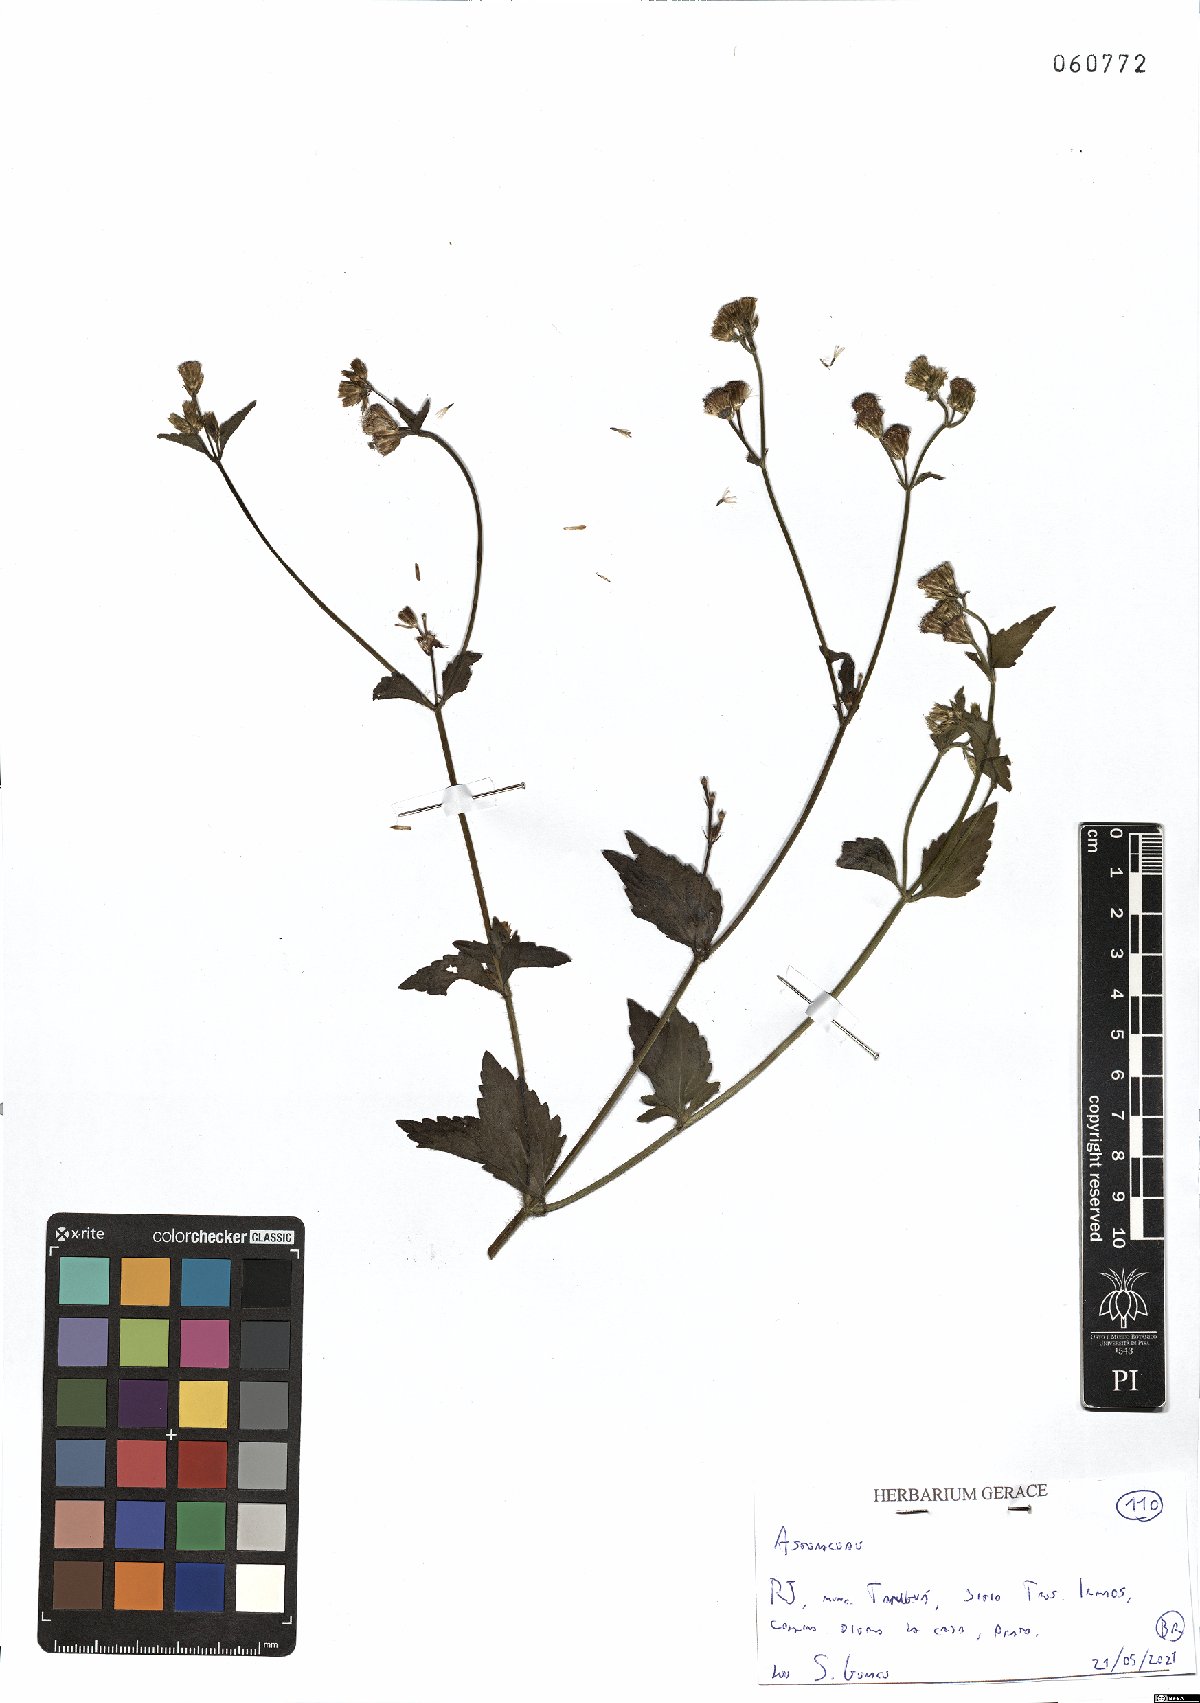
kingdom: Plantae
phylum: Tracheophyta
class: Magnoliopsida
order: Asterales
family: Asteraceae
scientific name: Asteraceae
